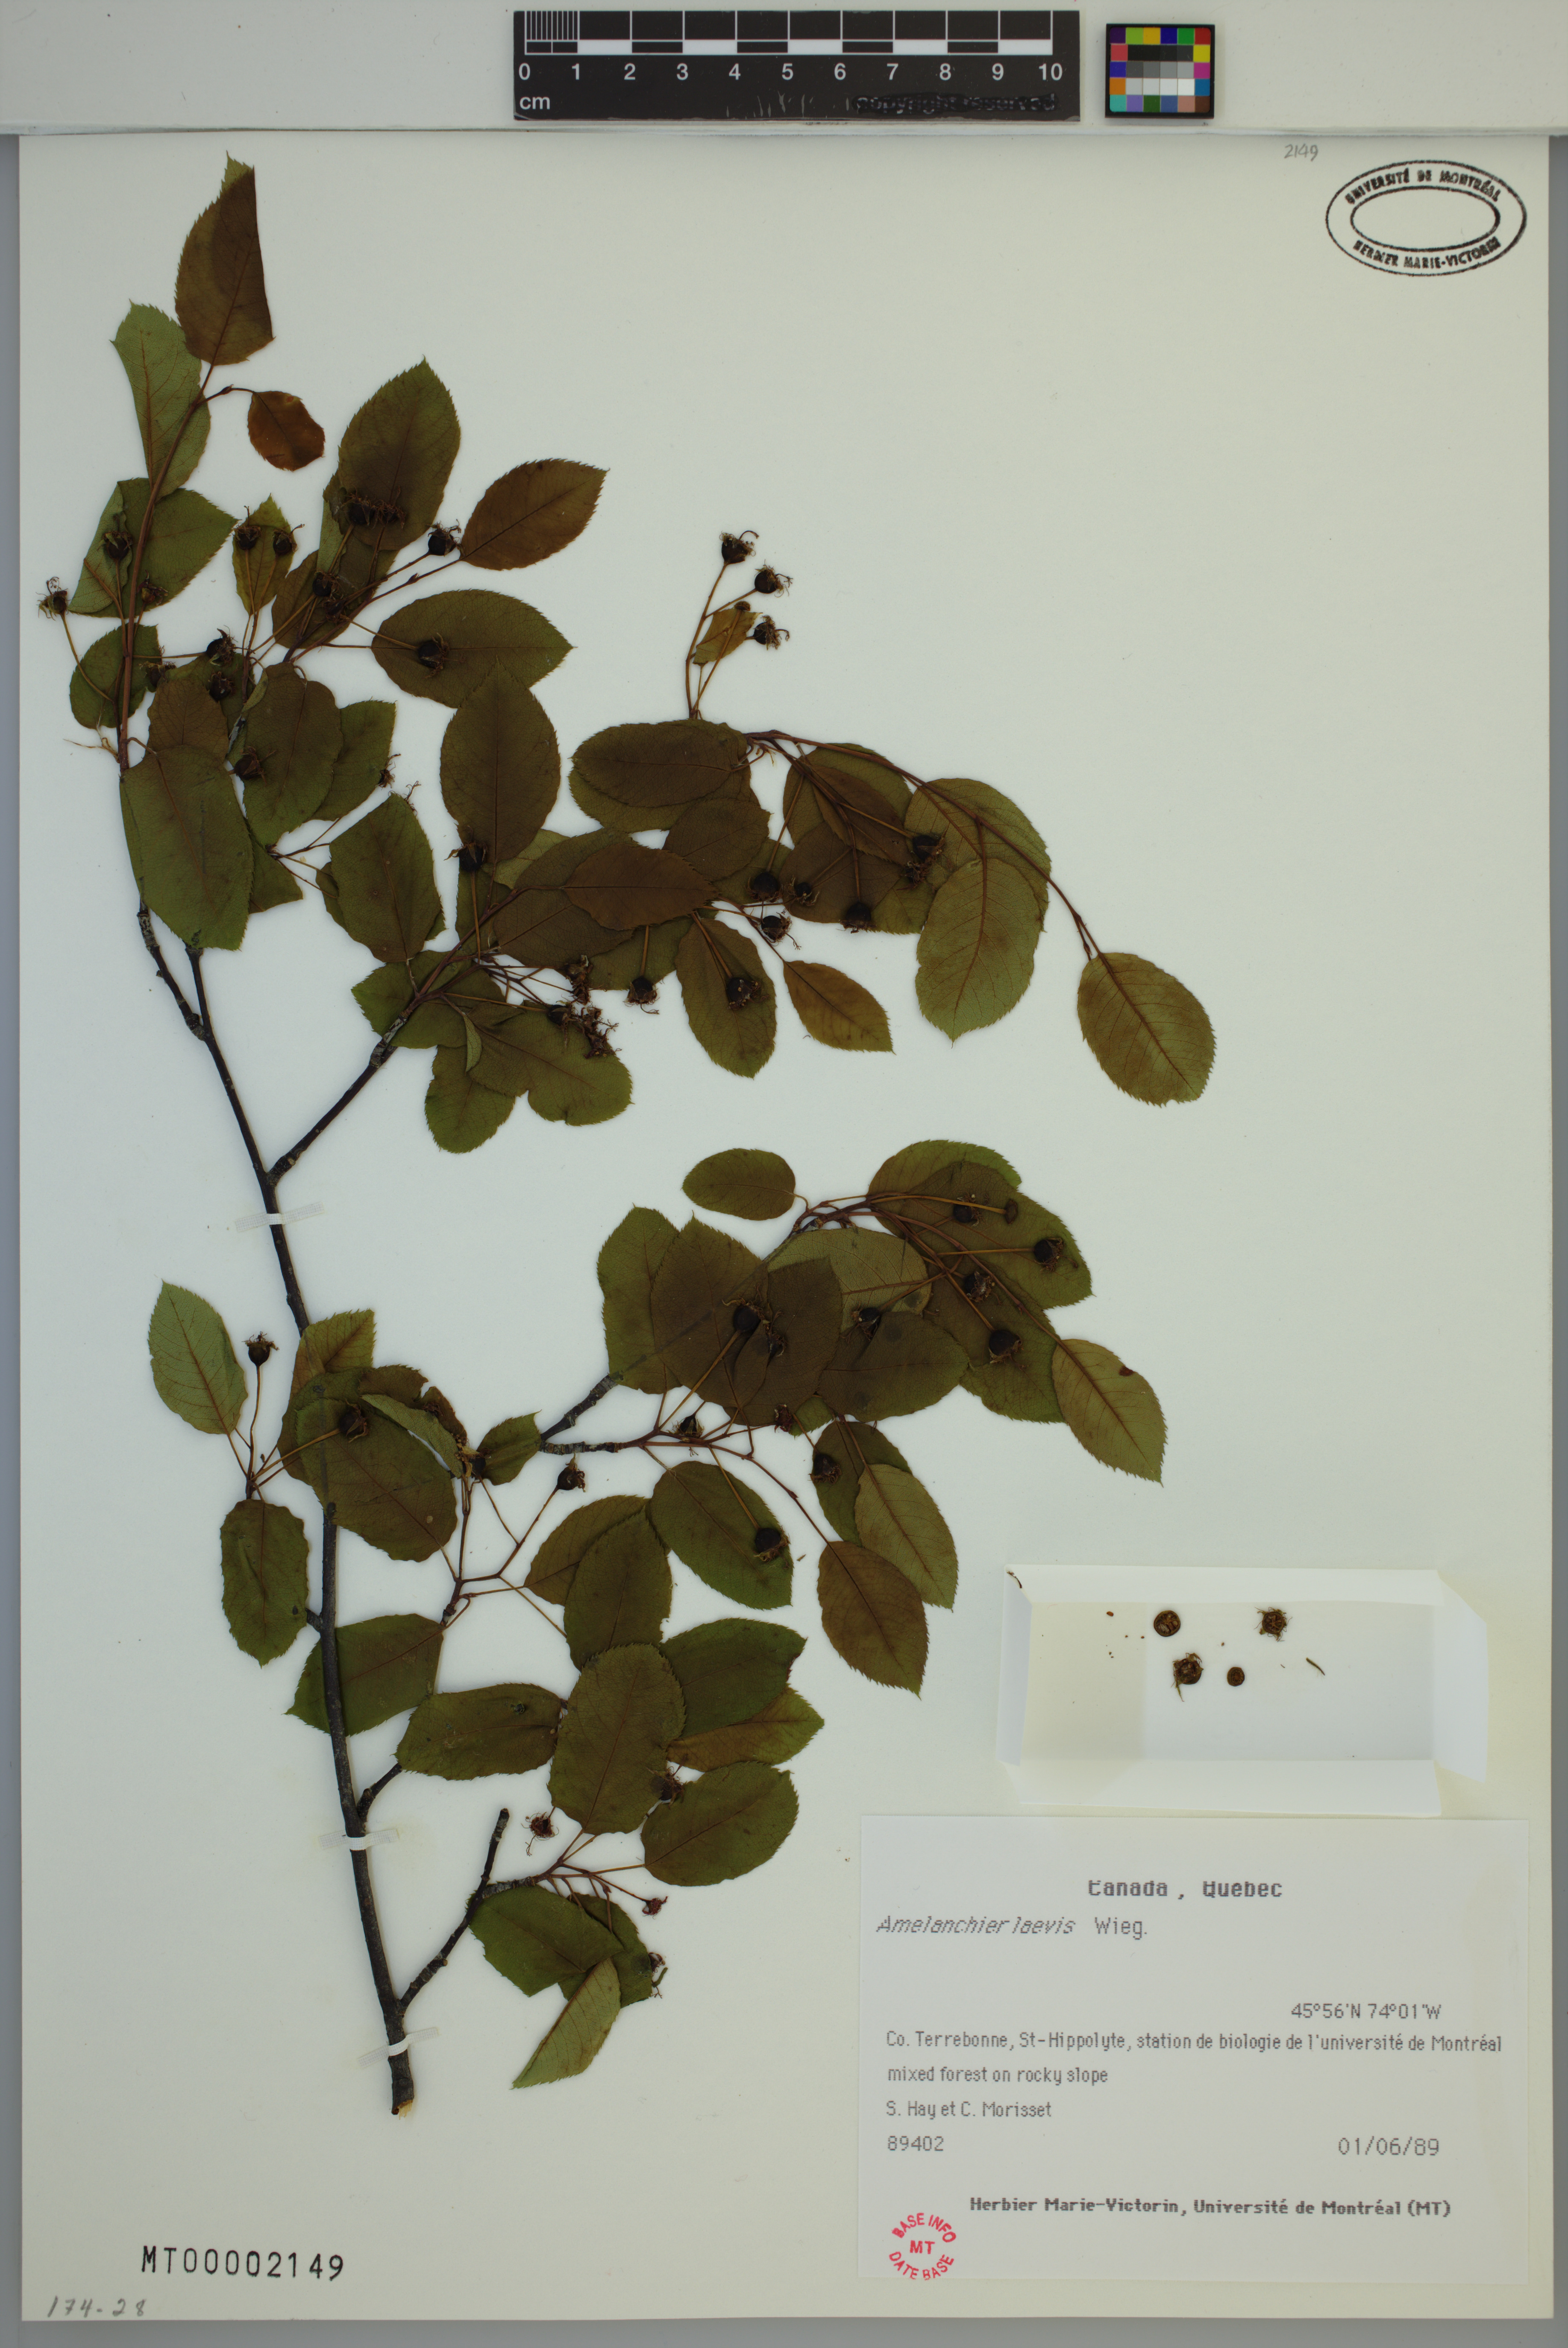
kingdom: Plantae
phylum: Tracheophyta
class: Magnoliopsida
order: Rosales
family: Rosaceae
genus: Amelanchier
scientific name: Amelanchier laevis
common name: Allegheny serviceberry
